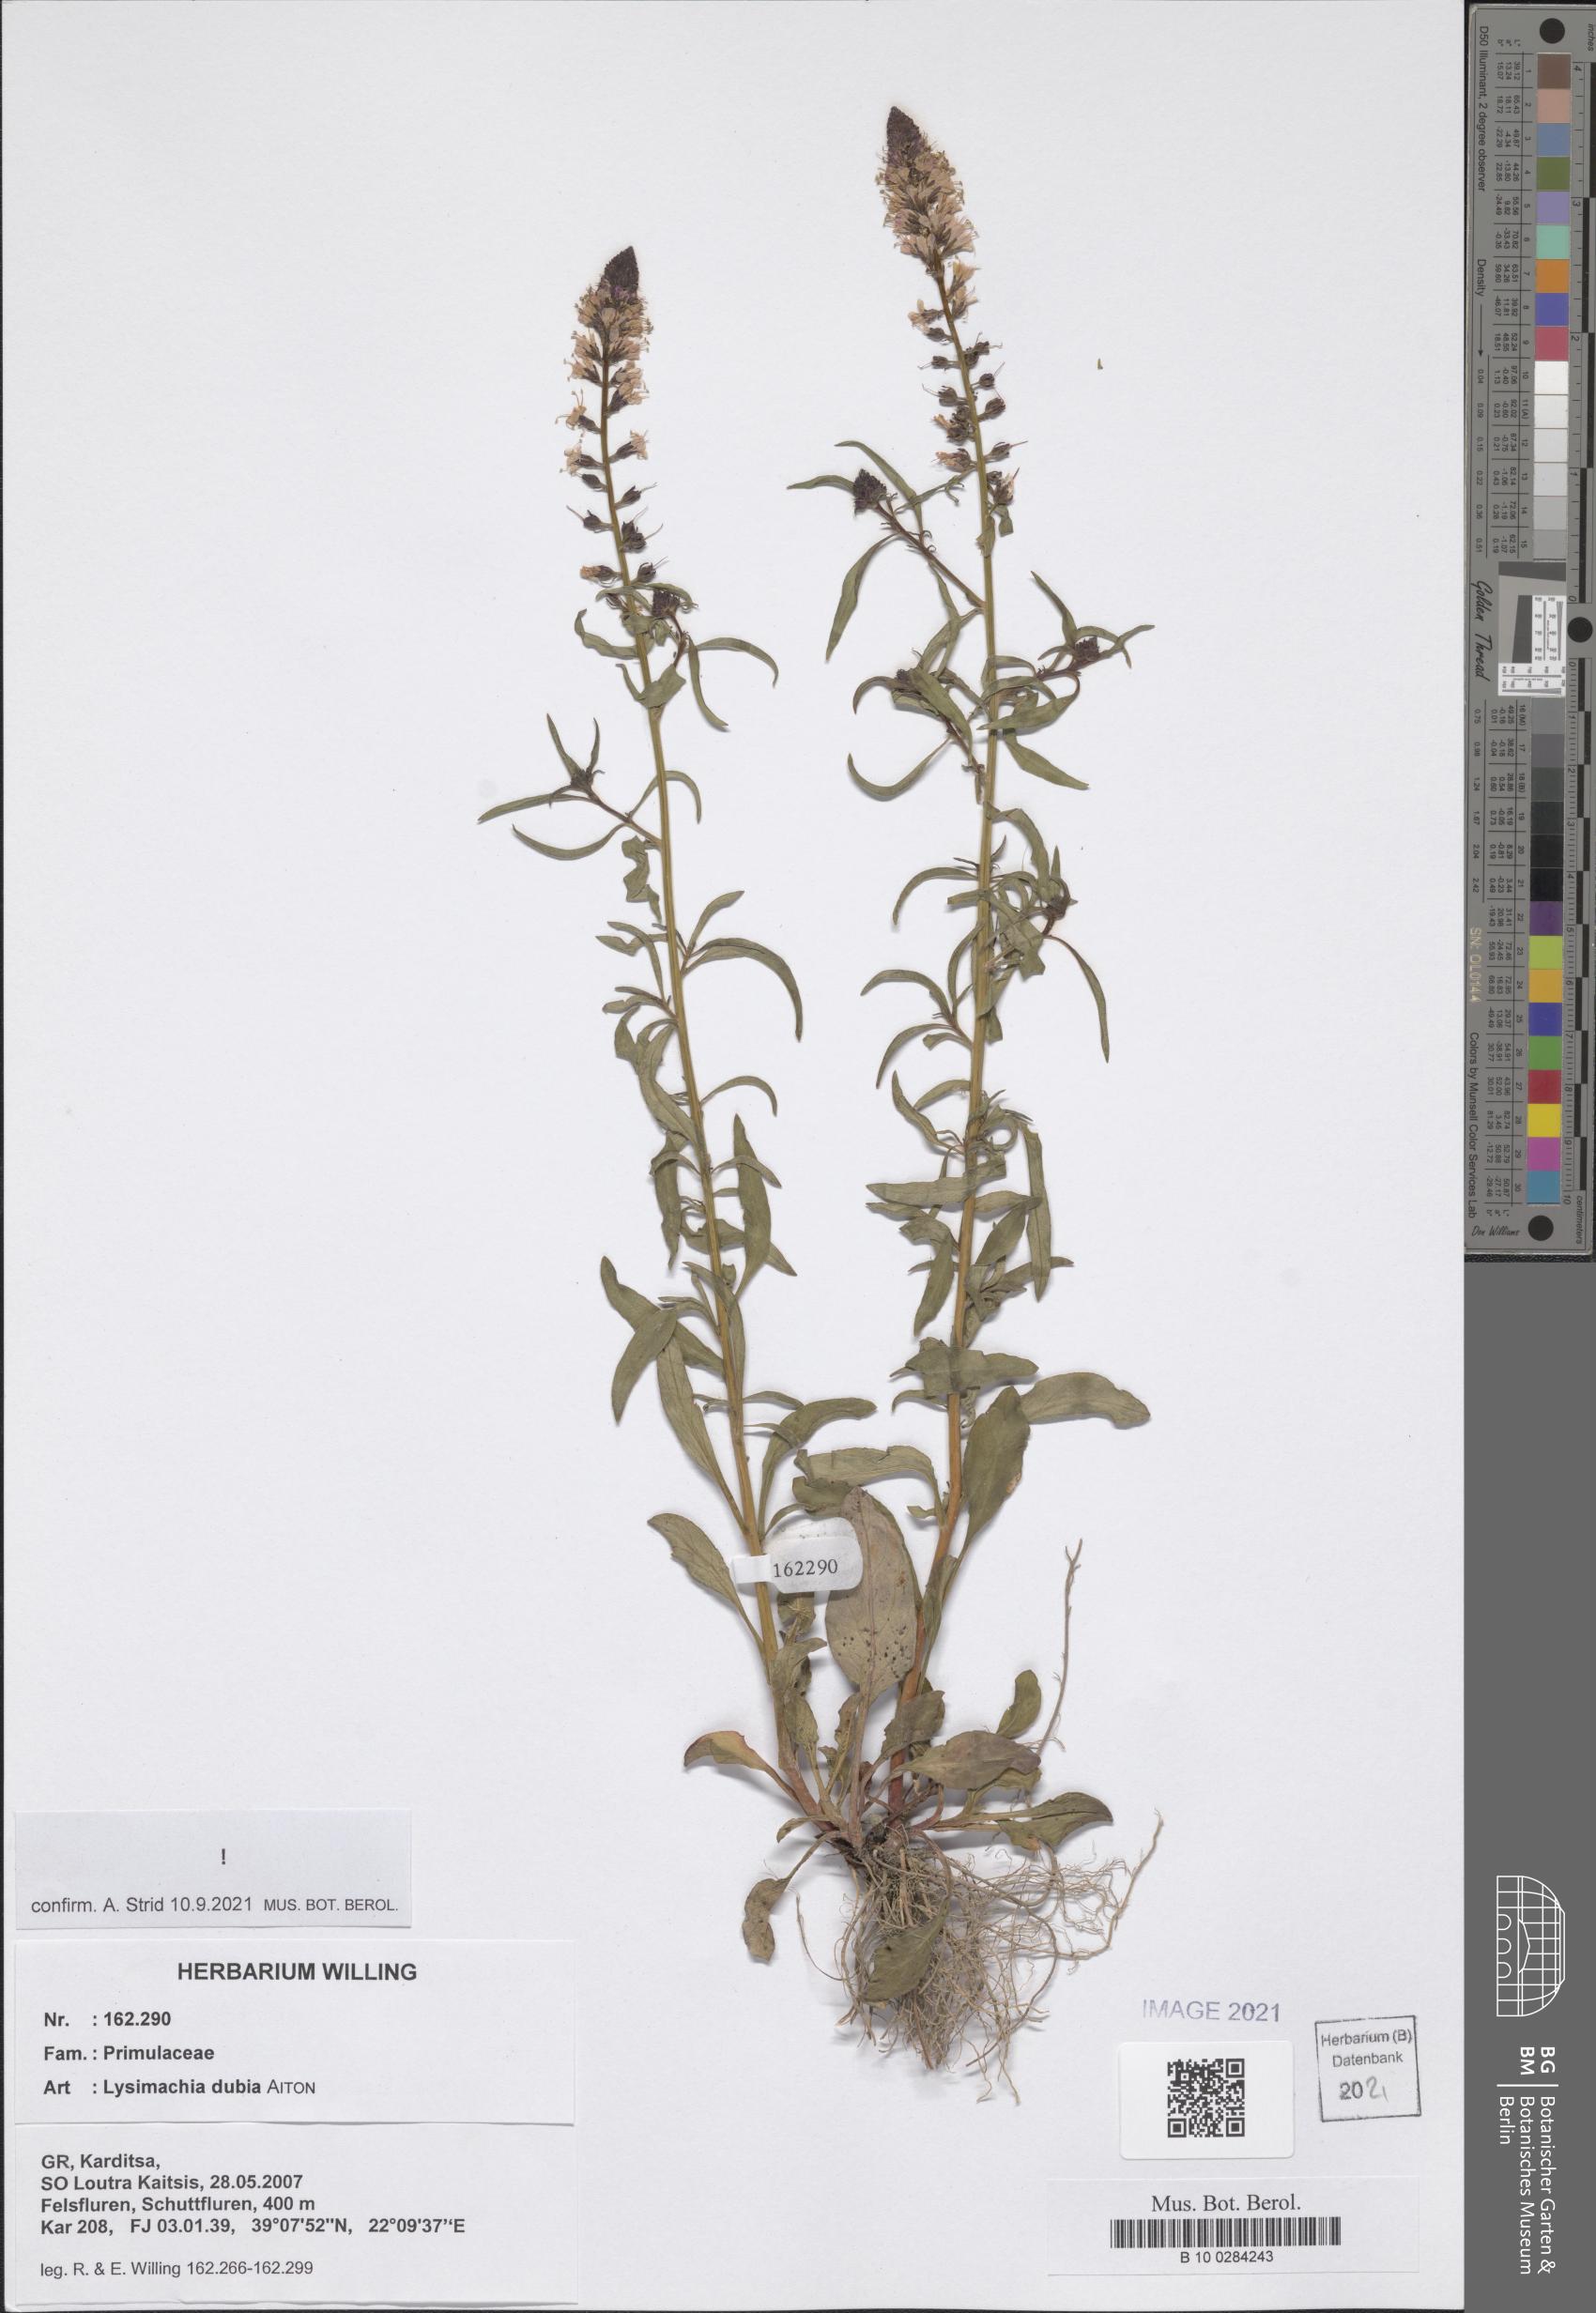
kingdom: Plantae
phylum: Tracheophyta
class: Magnoliopsida
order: Ericales
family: Primulaceae
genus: Lysimachia
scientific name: Lysimachia lanceolata
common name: Lance-leaved loosestrife
